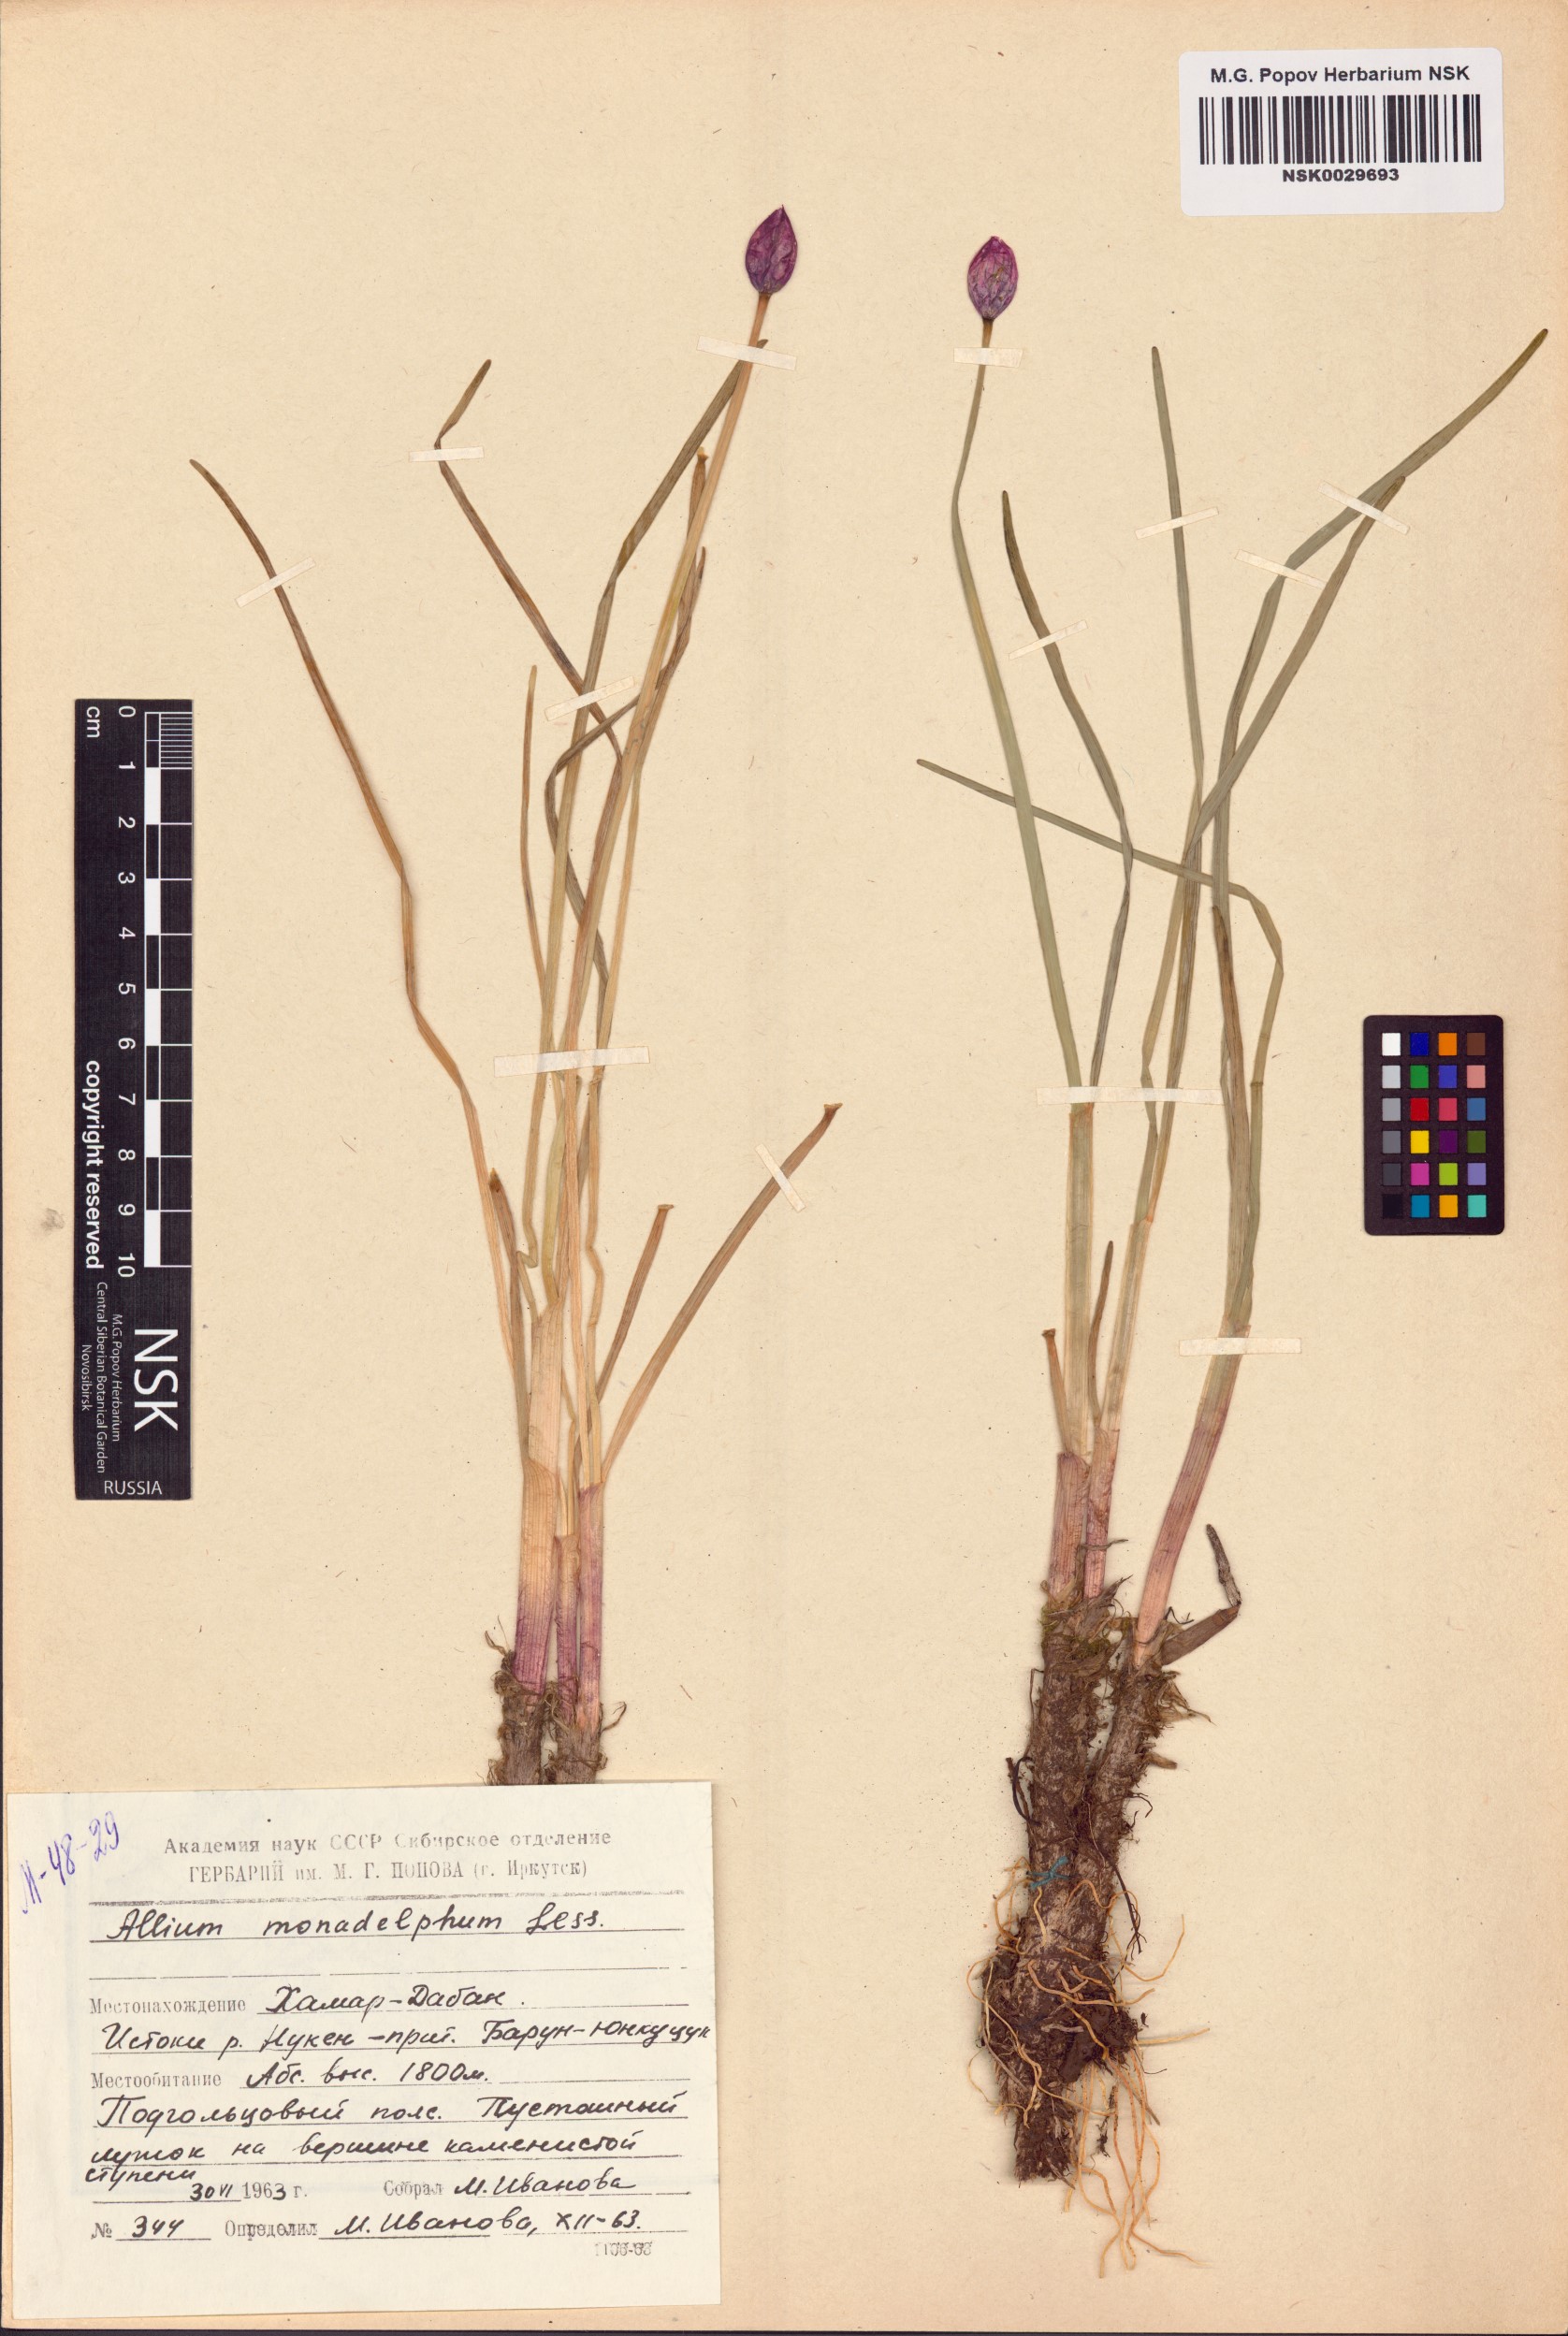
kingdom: Plantae
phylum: Tracheophyta
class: Liliopsida
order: Asparagales
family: Amaryllidaceae
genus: Allium
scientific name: Allium atrosanguineum
